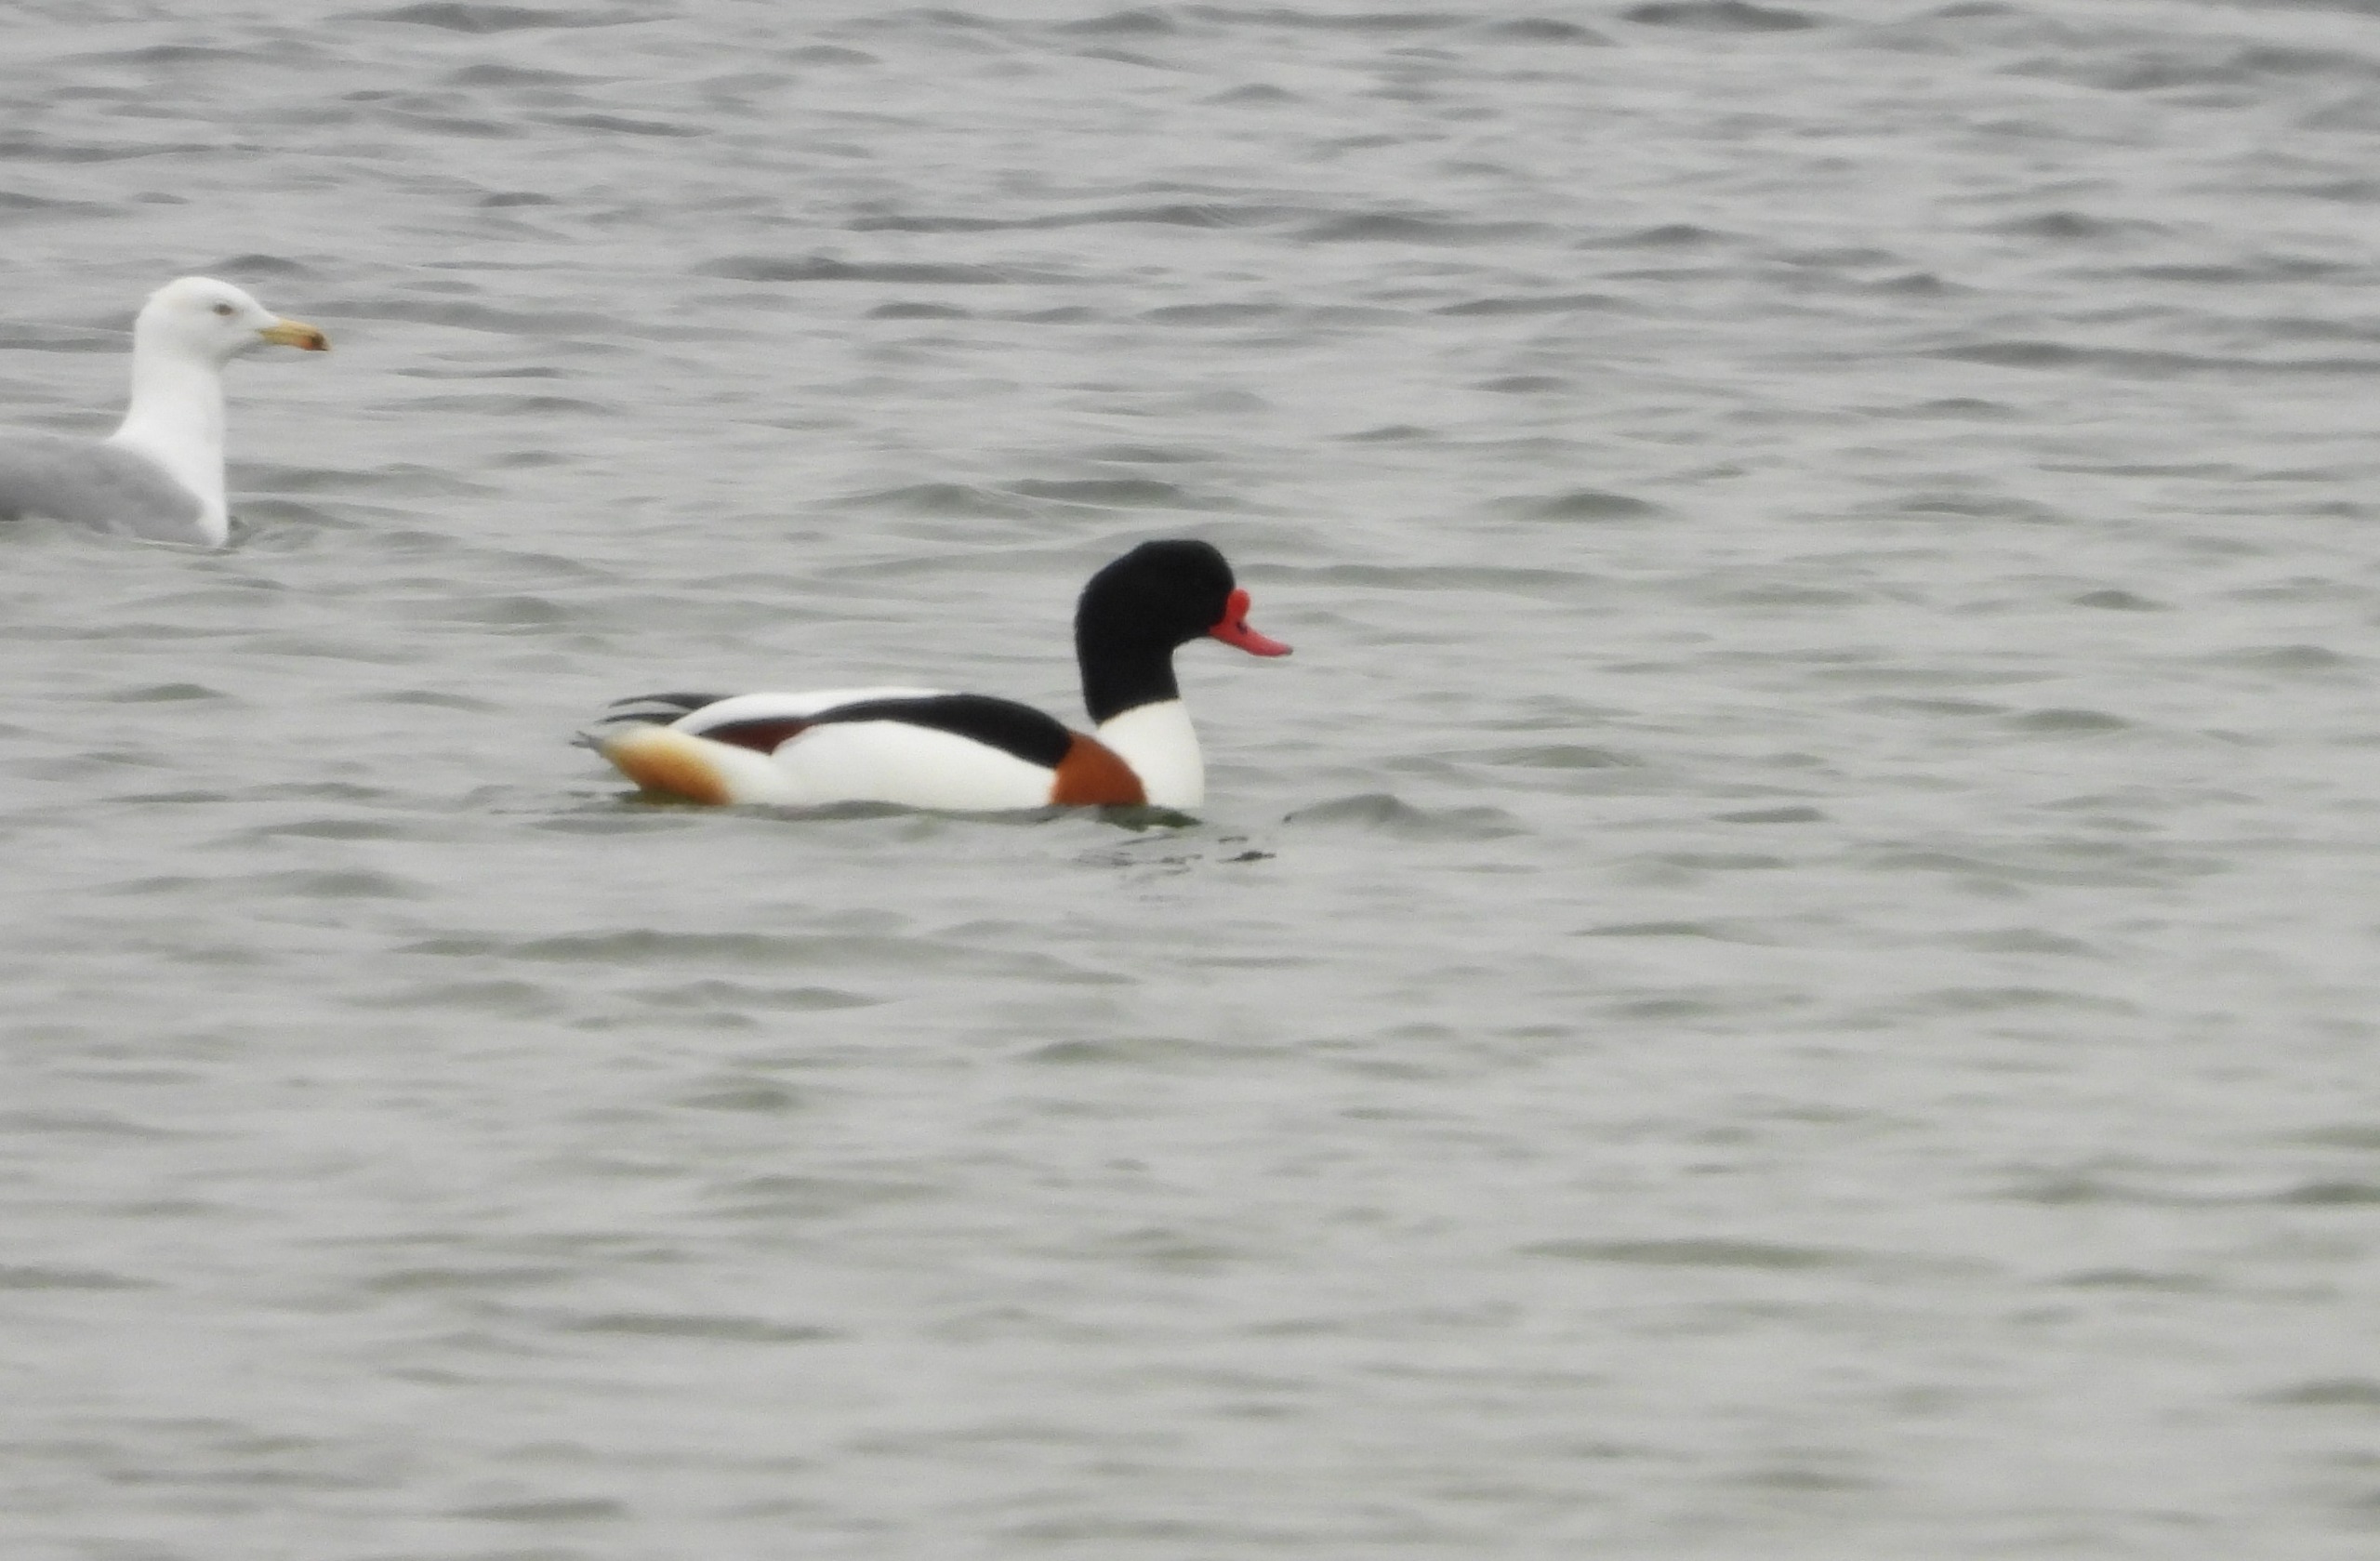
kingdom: Animalia
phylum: Chordata
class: Aves
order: Anseriformes
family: Anatidae
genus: Tadorna
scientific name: Tadorna tadorna
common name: Gravand
